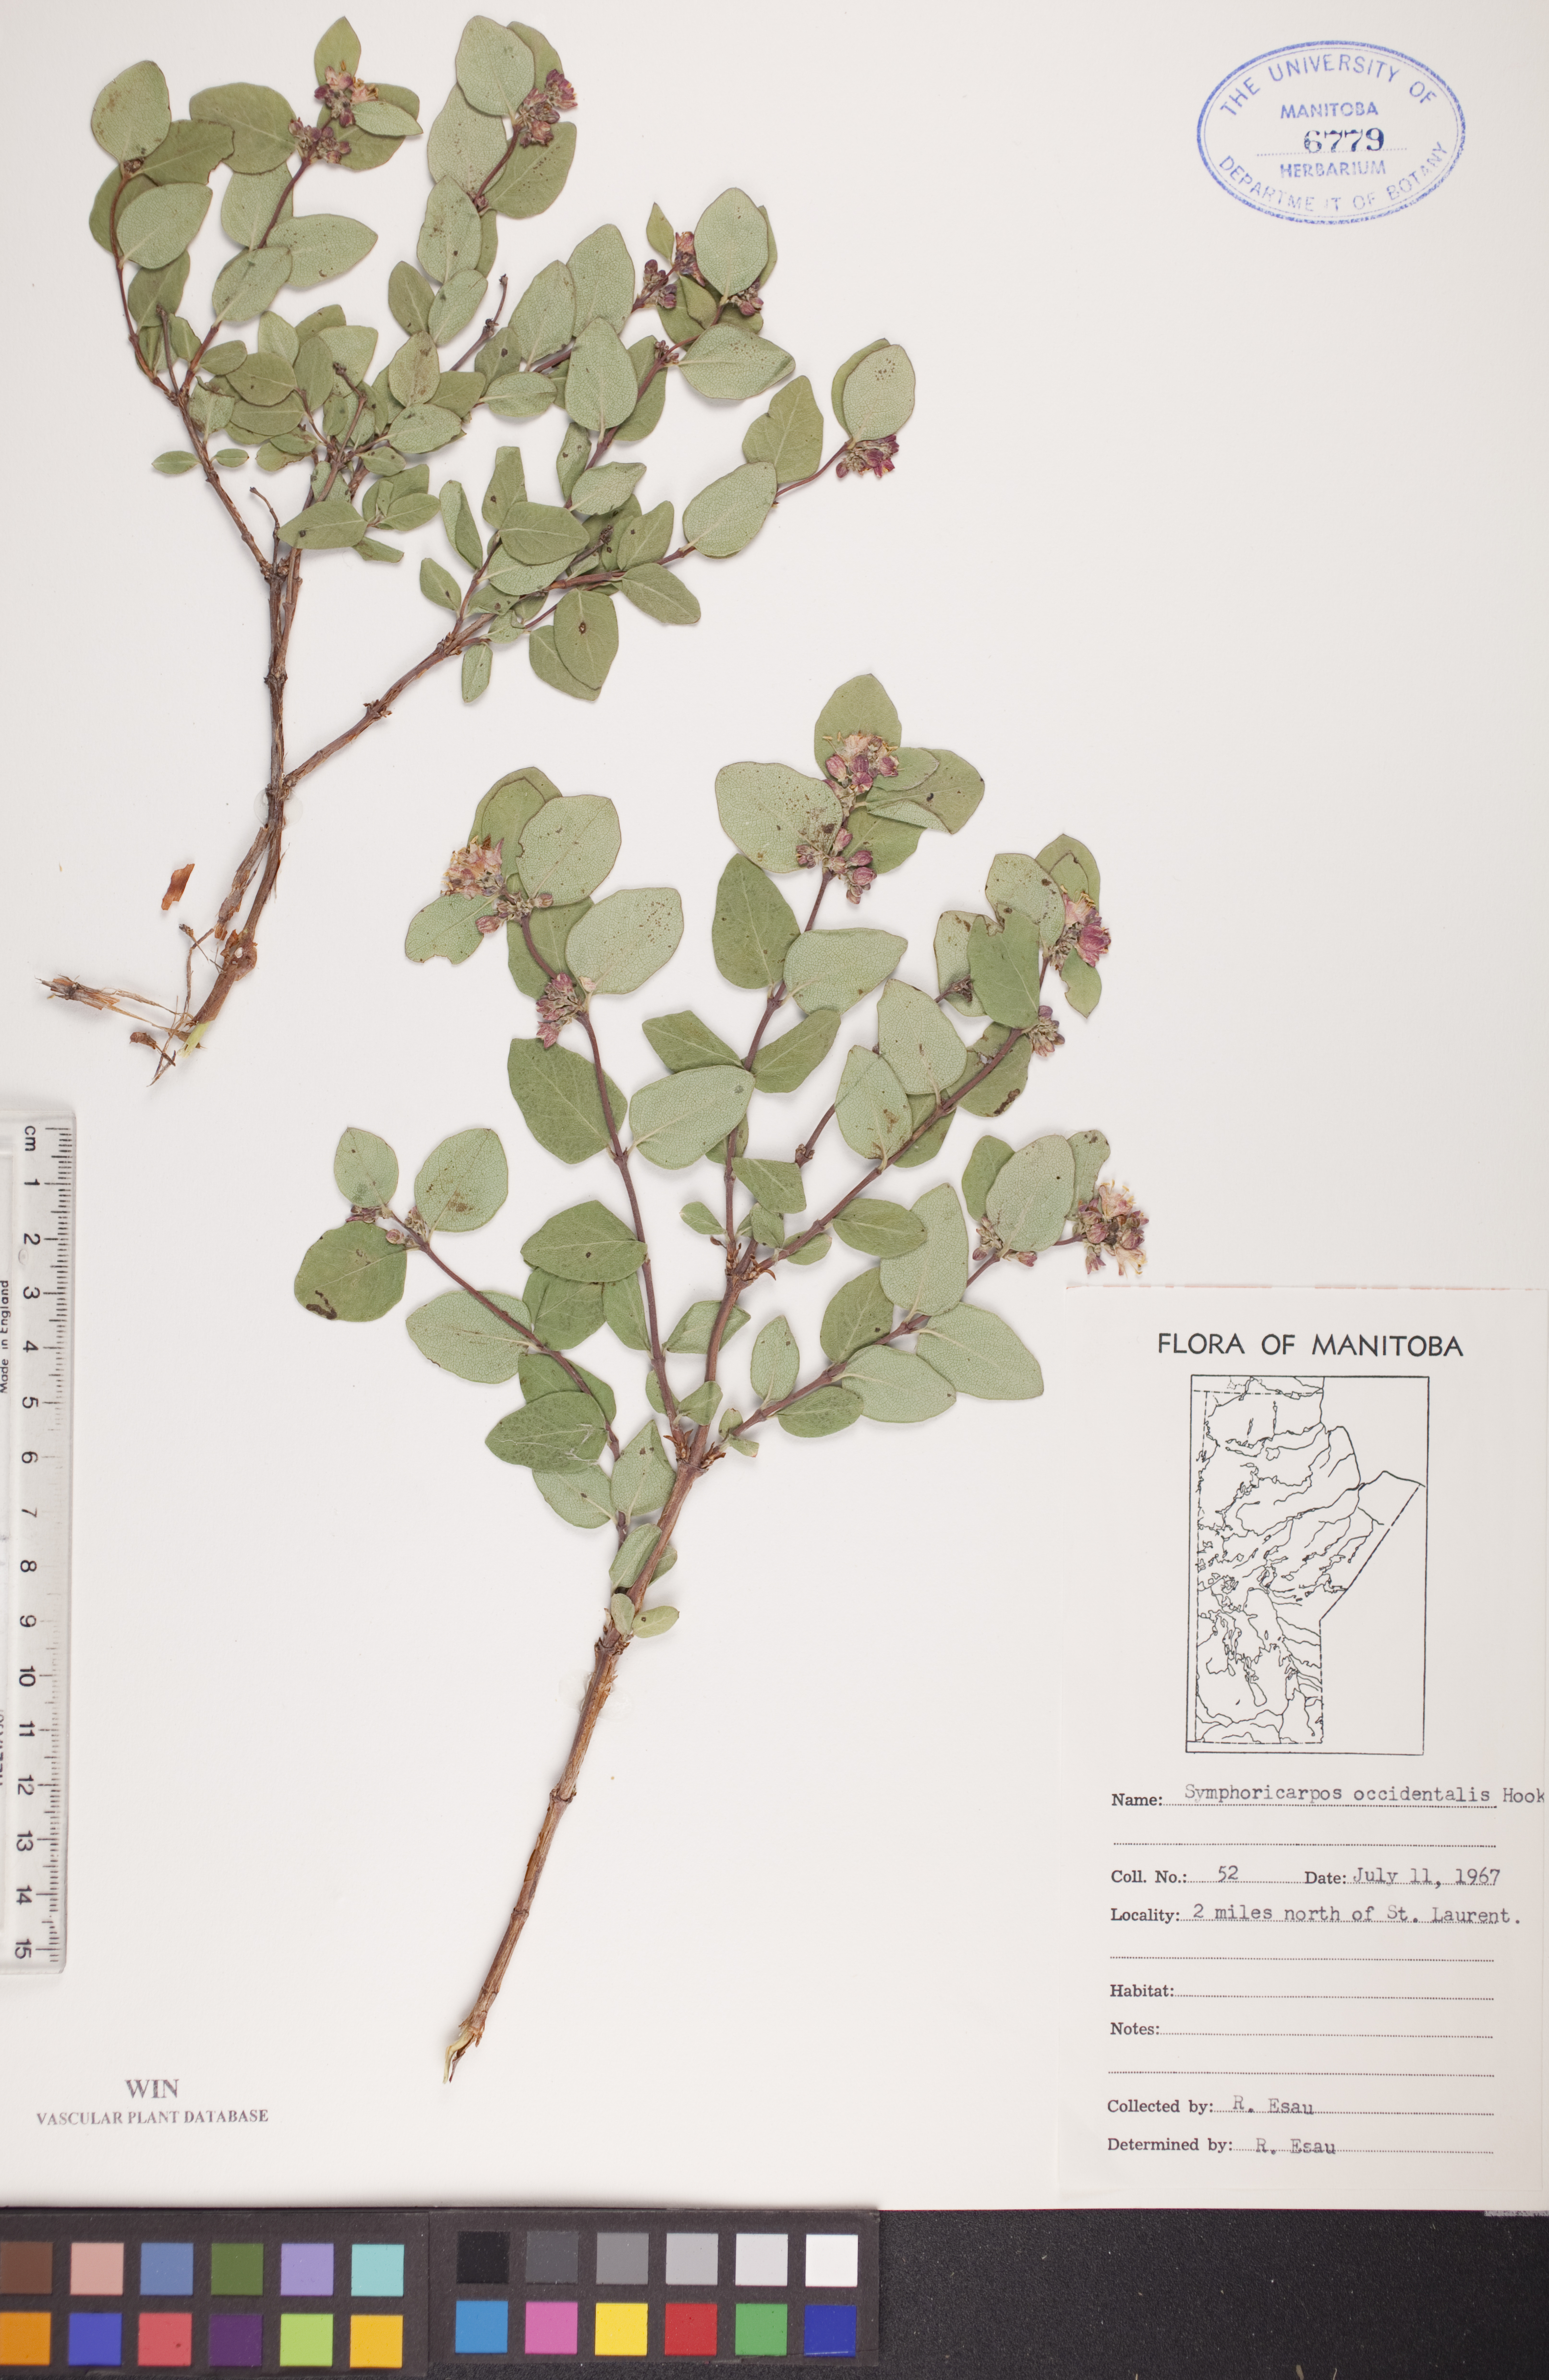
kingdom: Plantae
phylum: Tracheophyta
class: Magnoliopsida
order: Dipsacales
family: Caprifoliaceae
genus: Symphoricarpos
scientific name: Symphoricarpos occidentalis
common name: Wolfberry
